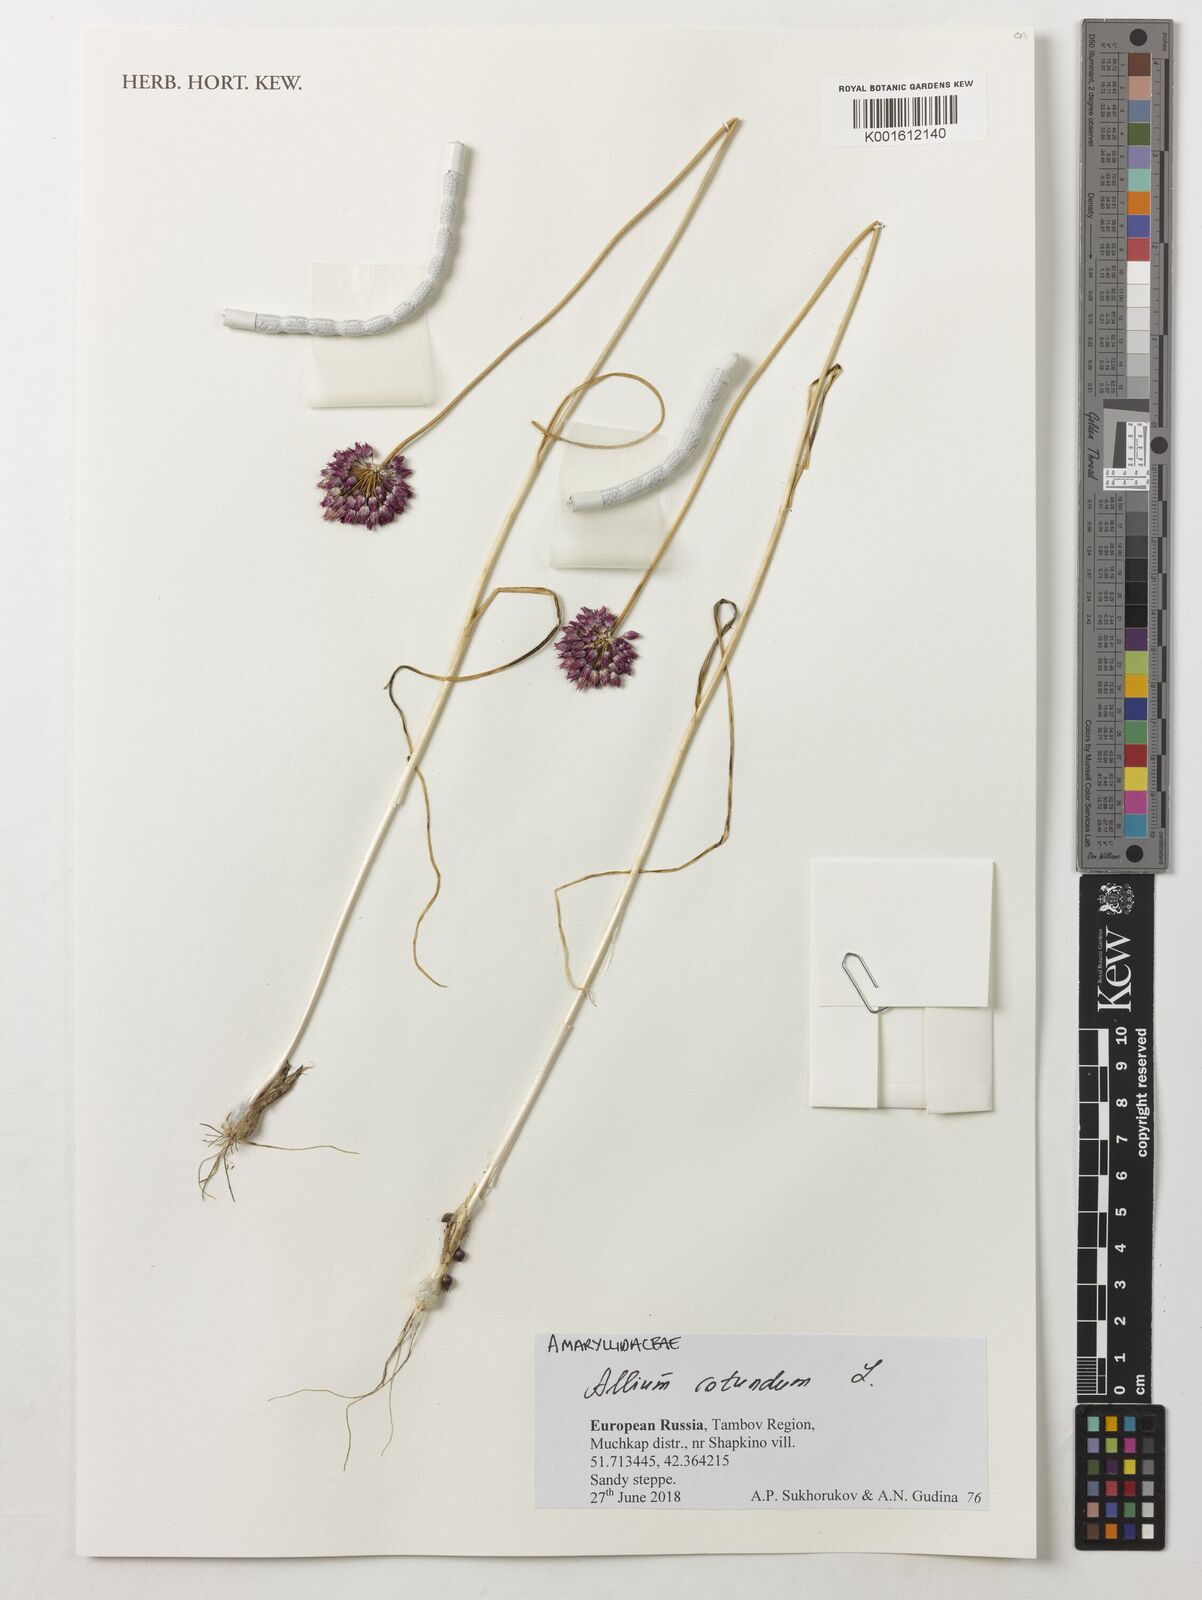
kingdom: Plantae
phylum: Tracheophyta
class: Liliopsida
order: Asparagales
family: Amaryllidaceae
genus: Allium
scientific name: Allium rotundum
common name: Sand leek
